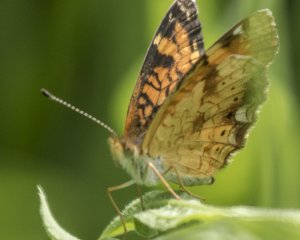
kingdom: Animalia
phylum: Arthropoda
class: Insecta
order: Lepidoptera
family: Nymphalidae
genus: Phyciodes
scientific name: Phyciodes tharos
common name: Northern Crescent
